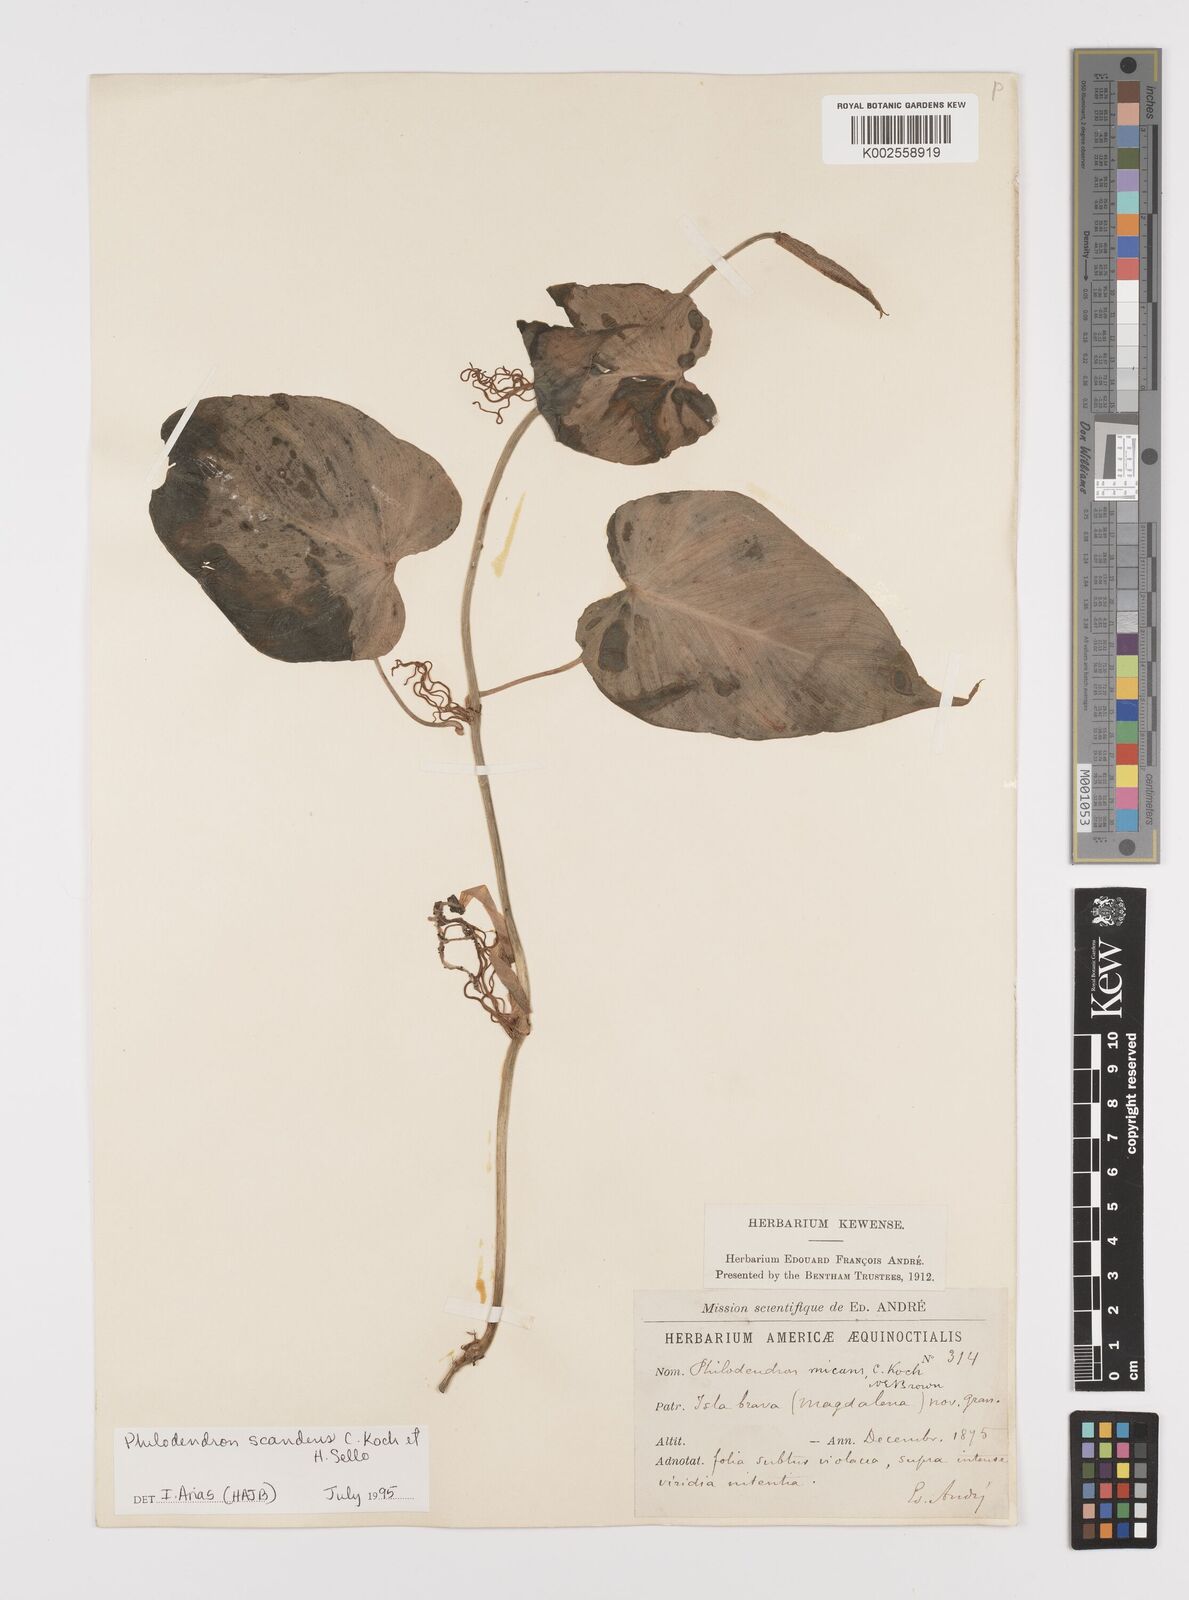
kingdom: Plantae
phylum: Tracheophyta
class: Liliopsida
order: Alismatales
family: Araceae
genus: Philodendron
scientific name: Philodendron hederaceum
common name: Vilevine
